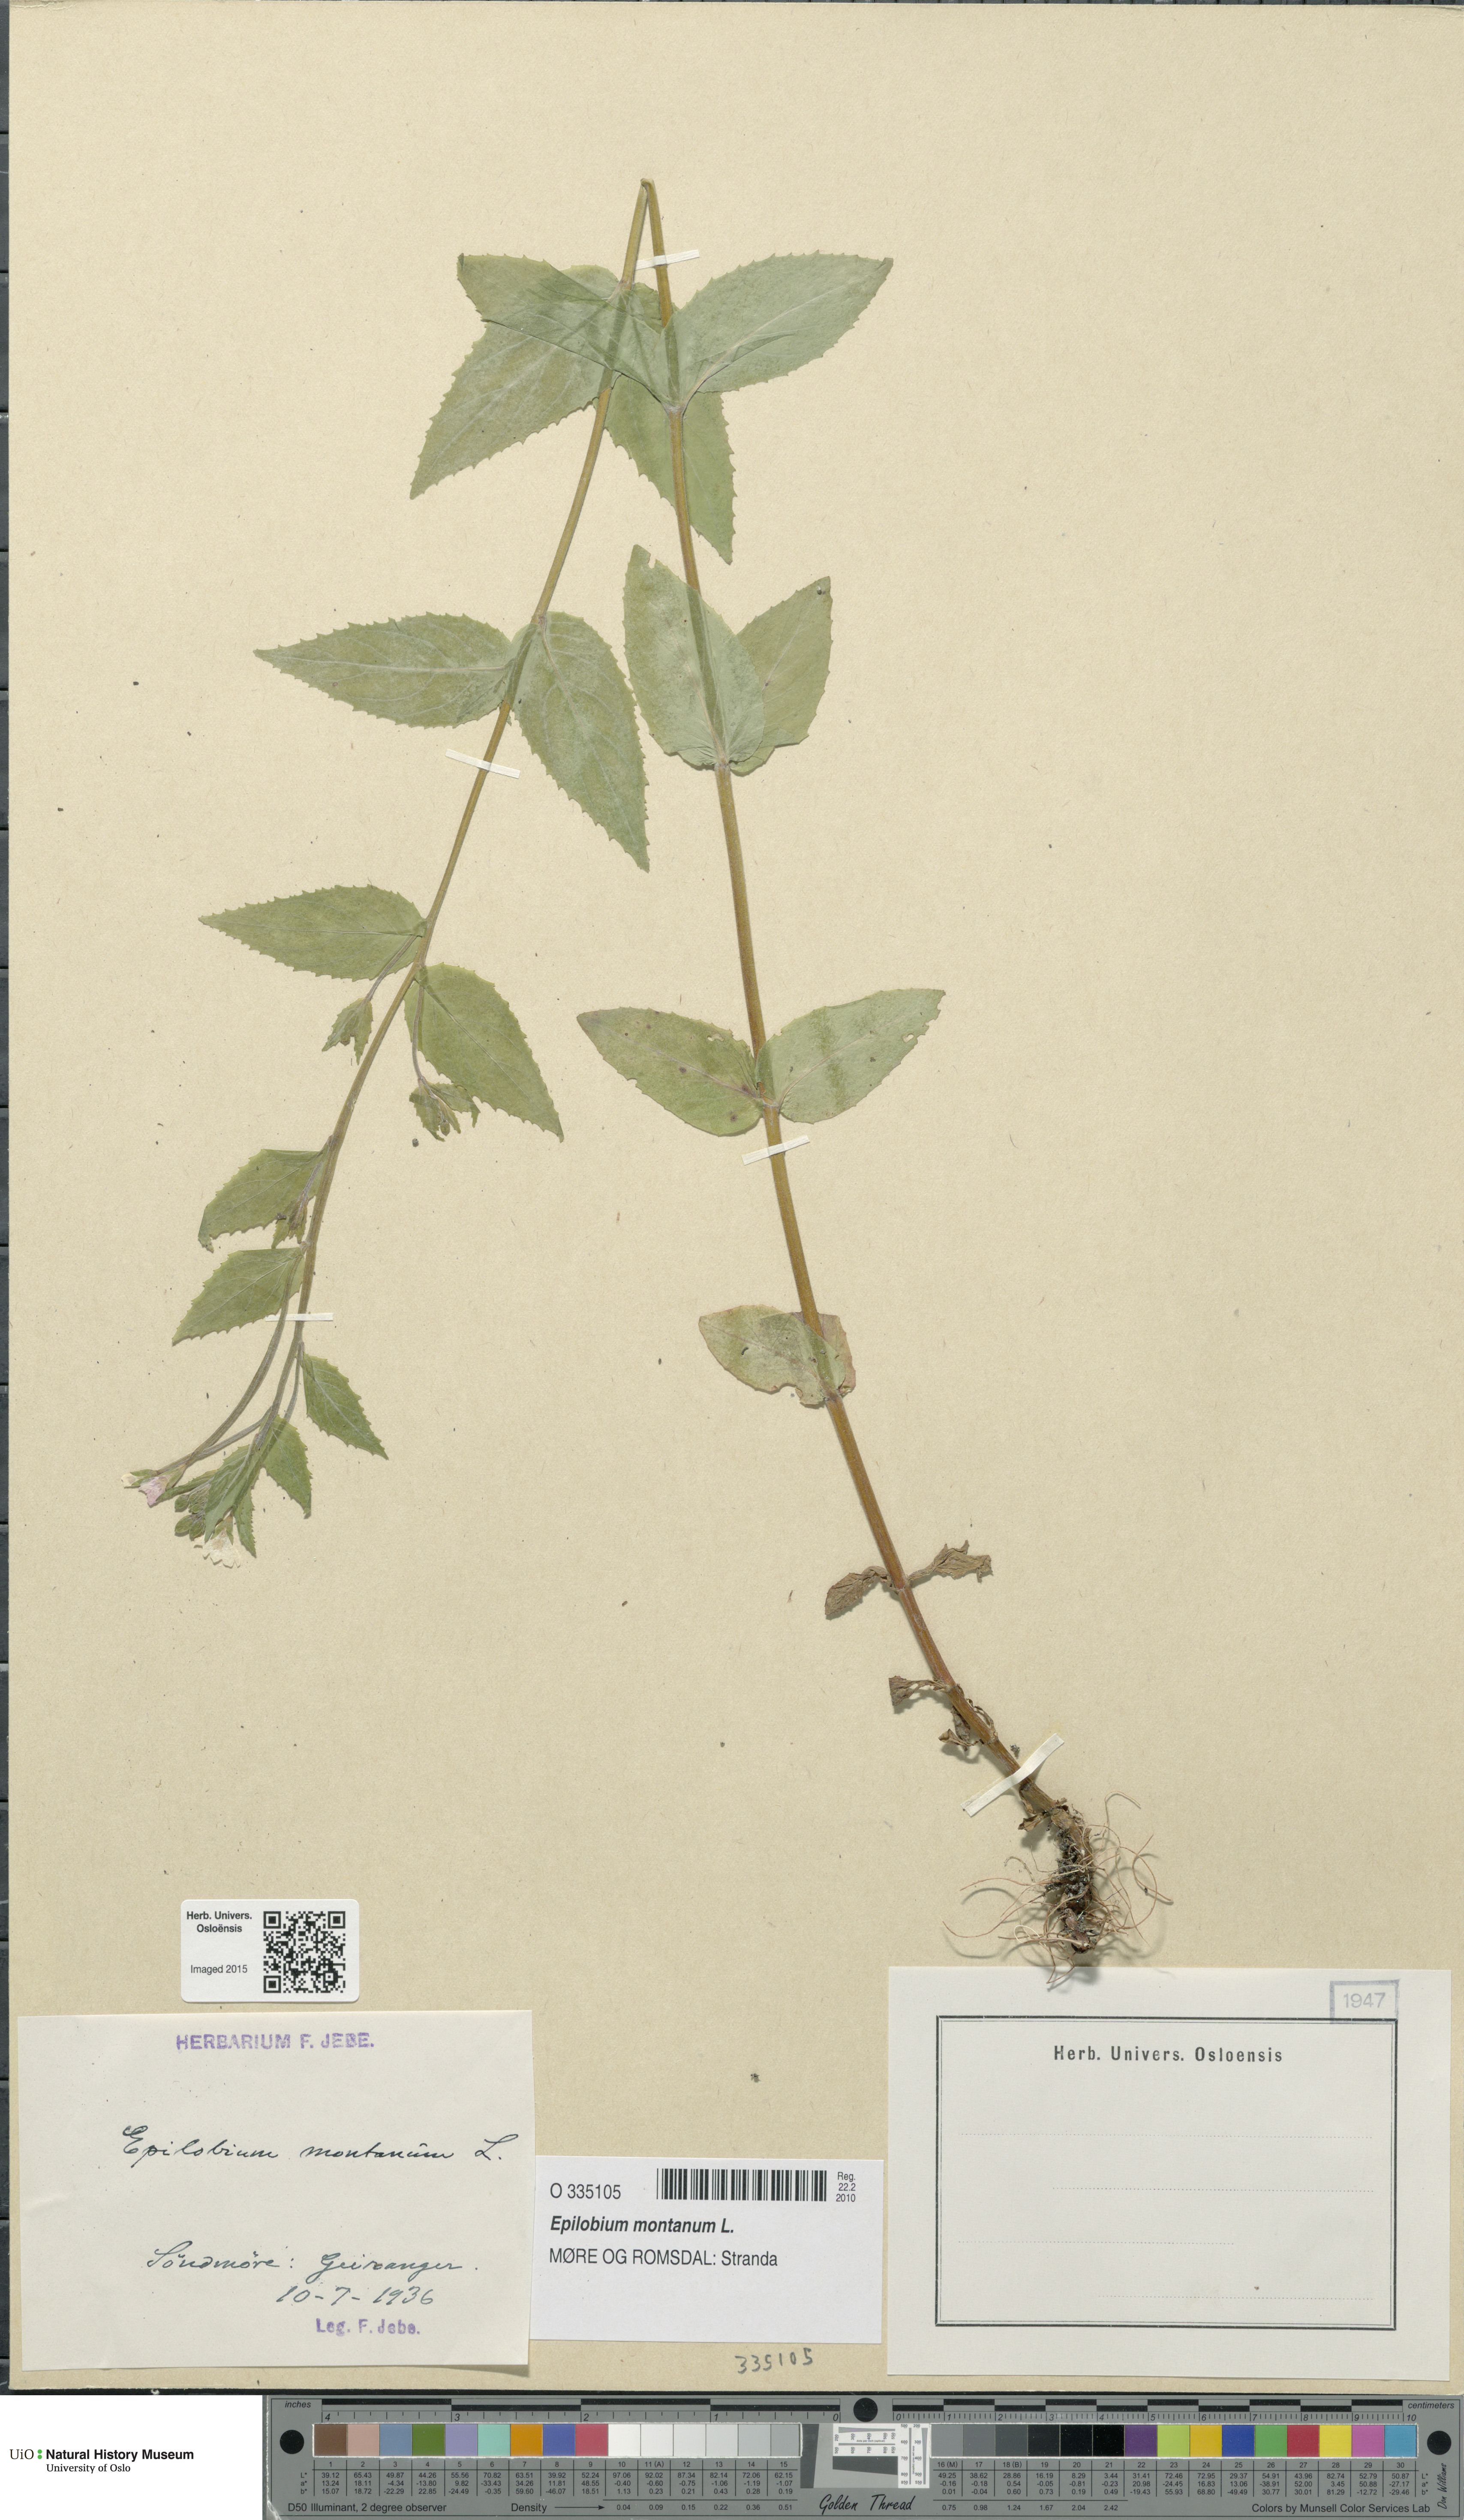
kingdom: Plantae
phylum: Tracheophyta
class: Magnoliopsida
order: Myrtales
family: Onagraceae
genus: Epilobium
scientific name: Epilobium montanum
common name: Broad-leaved willowherb
